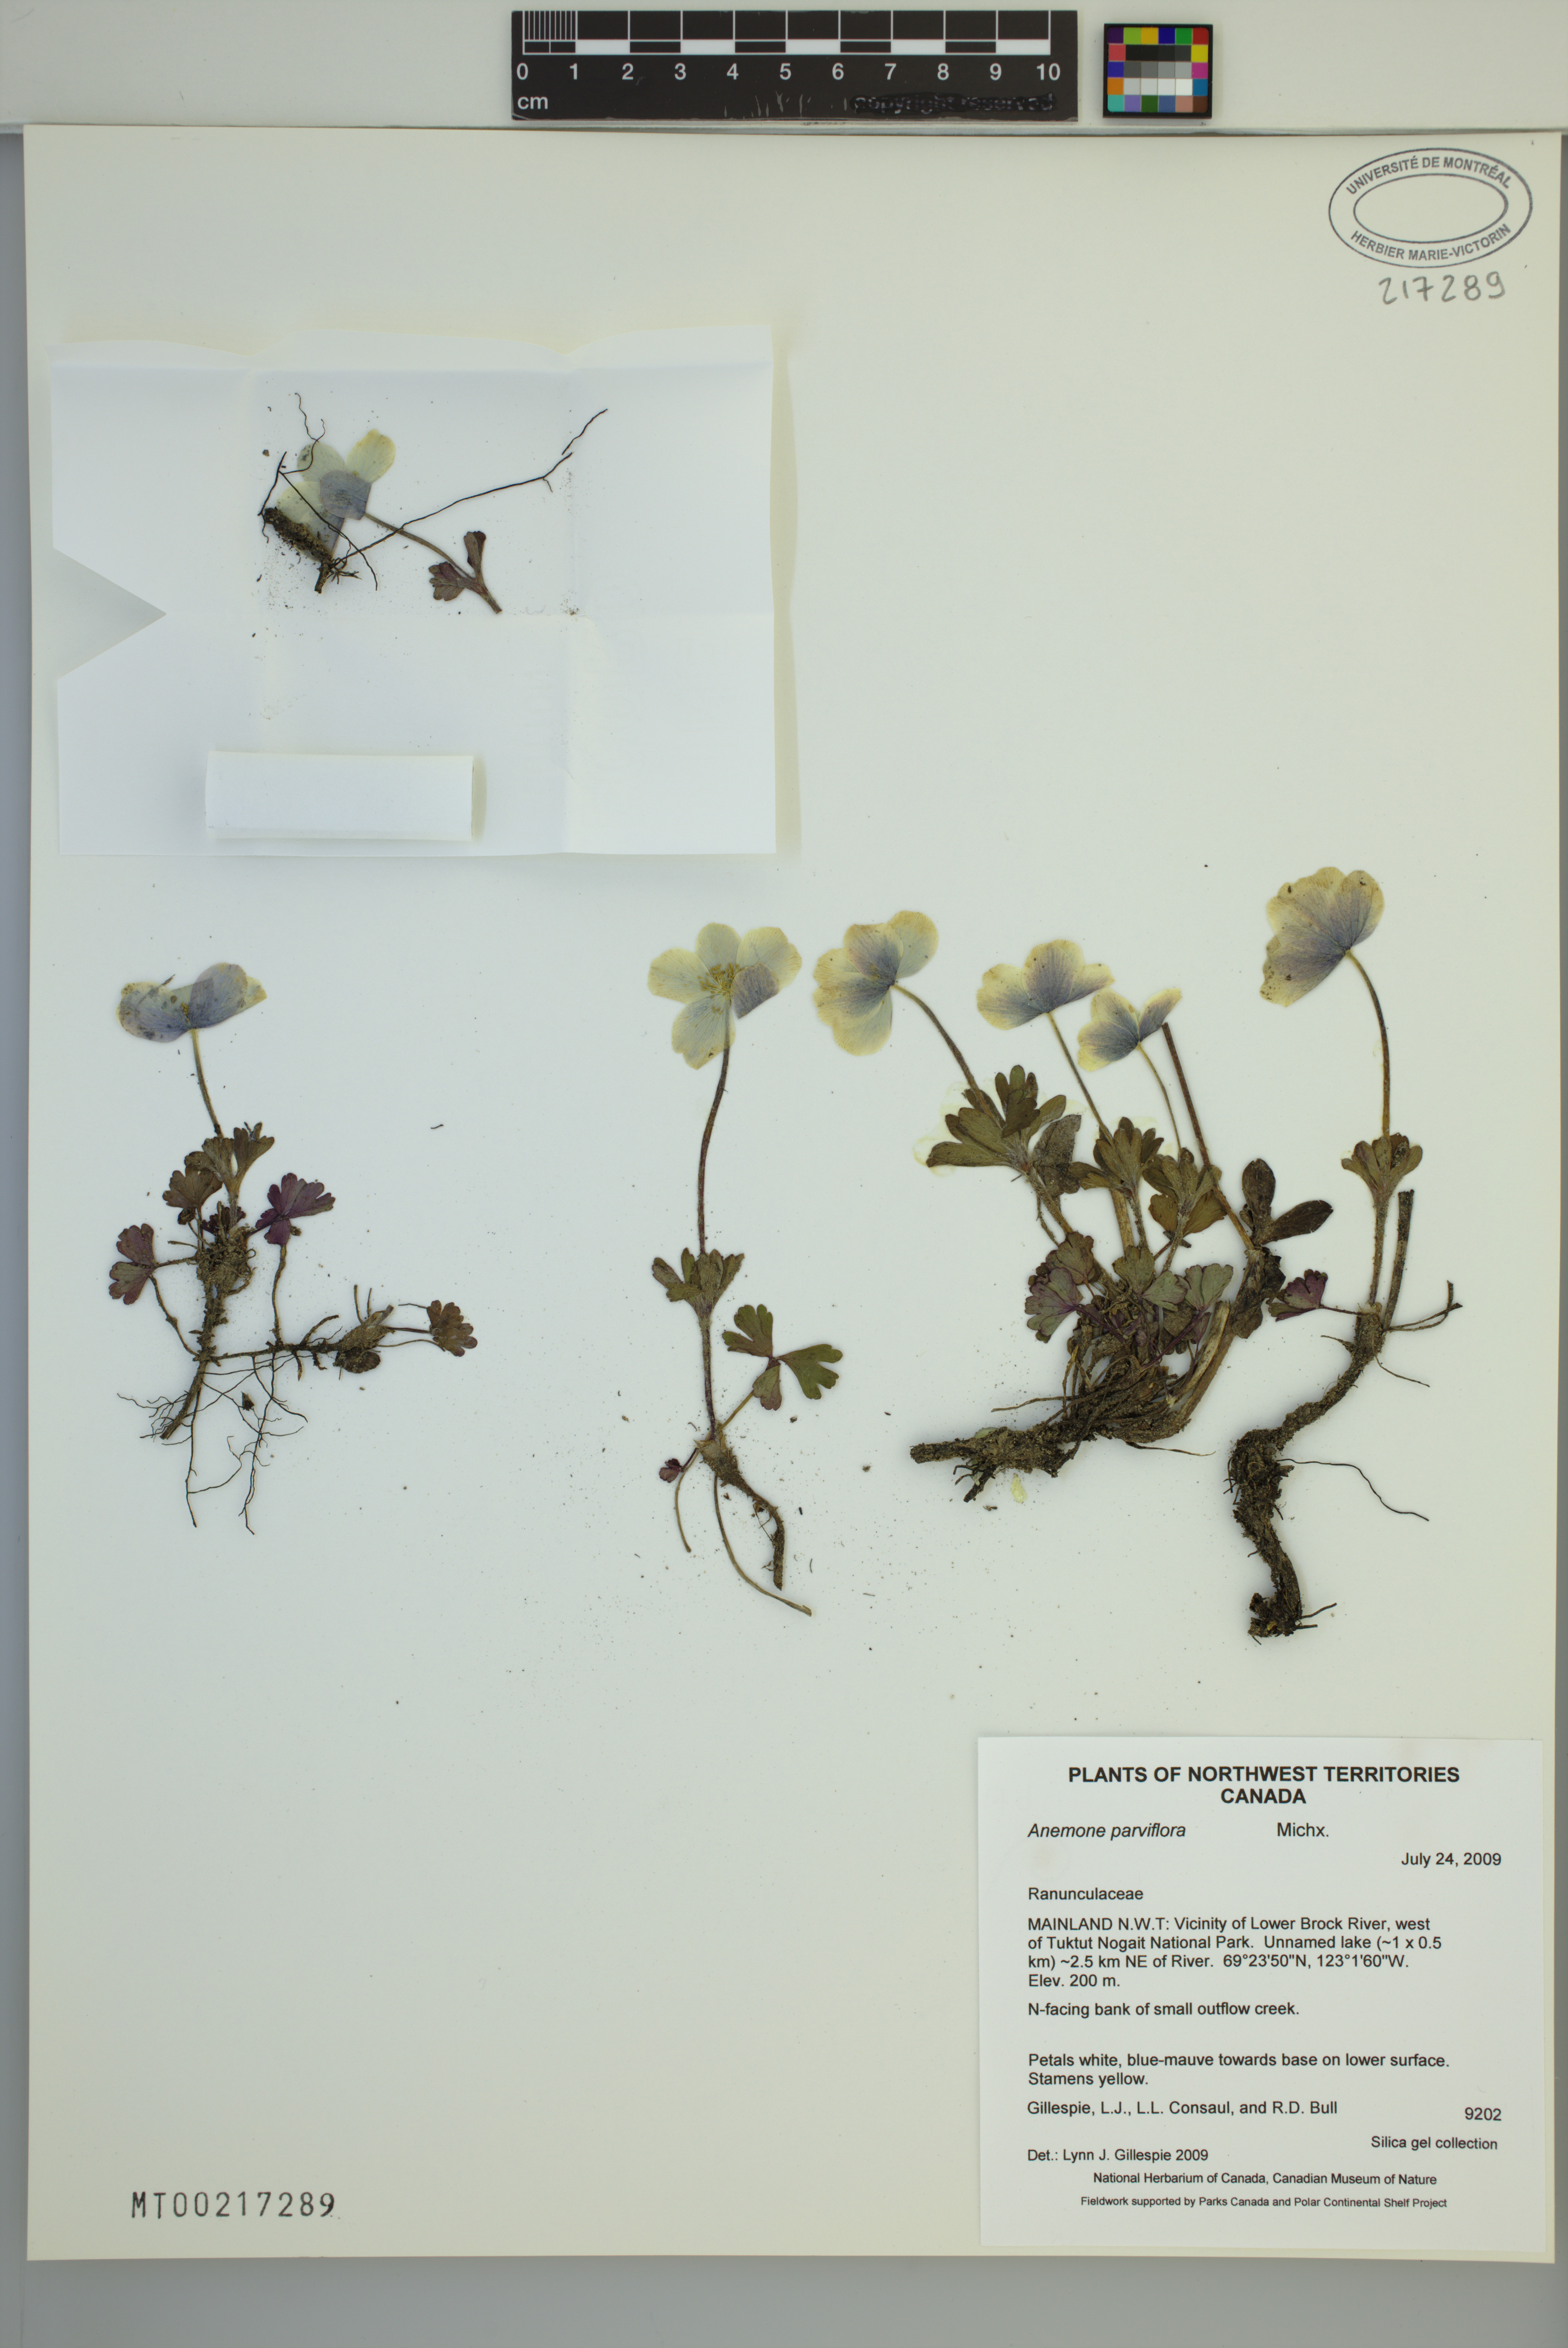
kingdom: Plantae
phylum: Tracheophyta
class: Magnoliopsida
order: Ranunculales
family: Ranunculaceae
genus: Anemone
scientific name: Anemone parviflora
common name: Northern anemone
